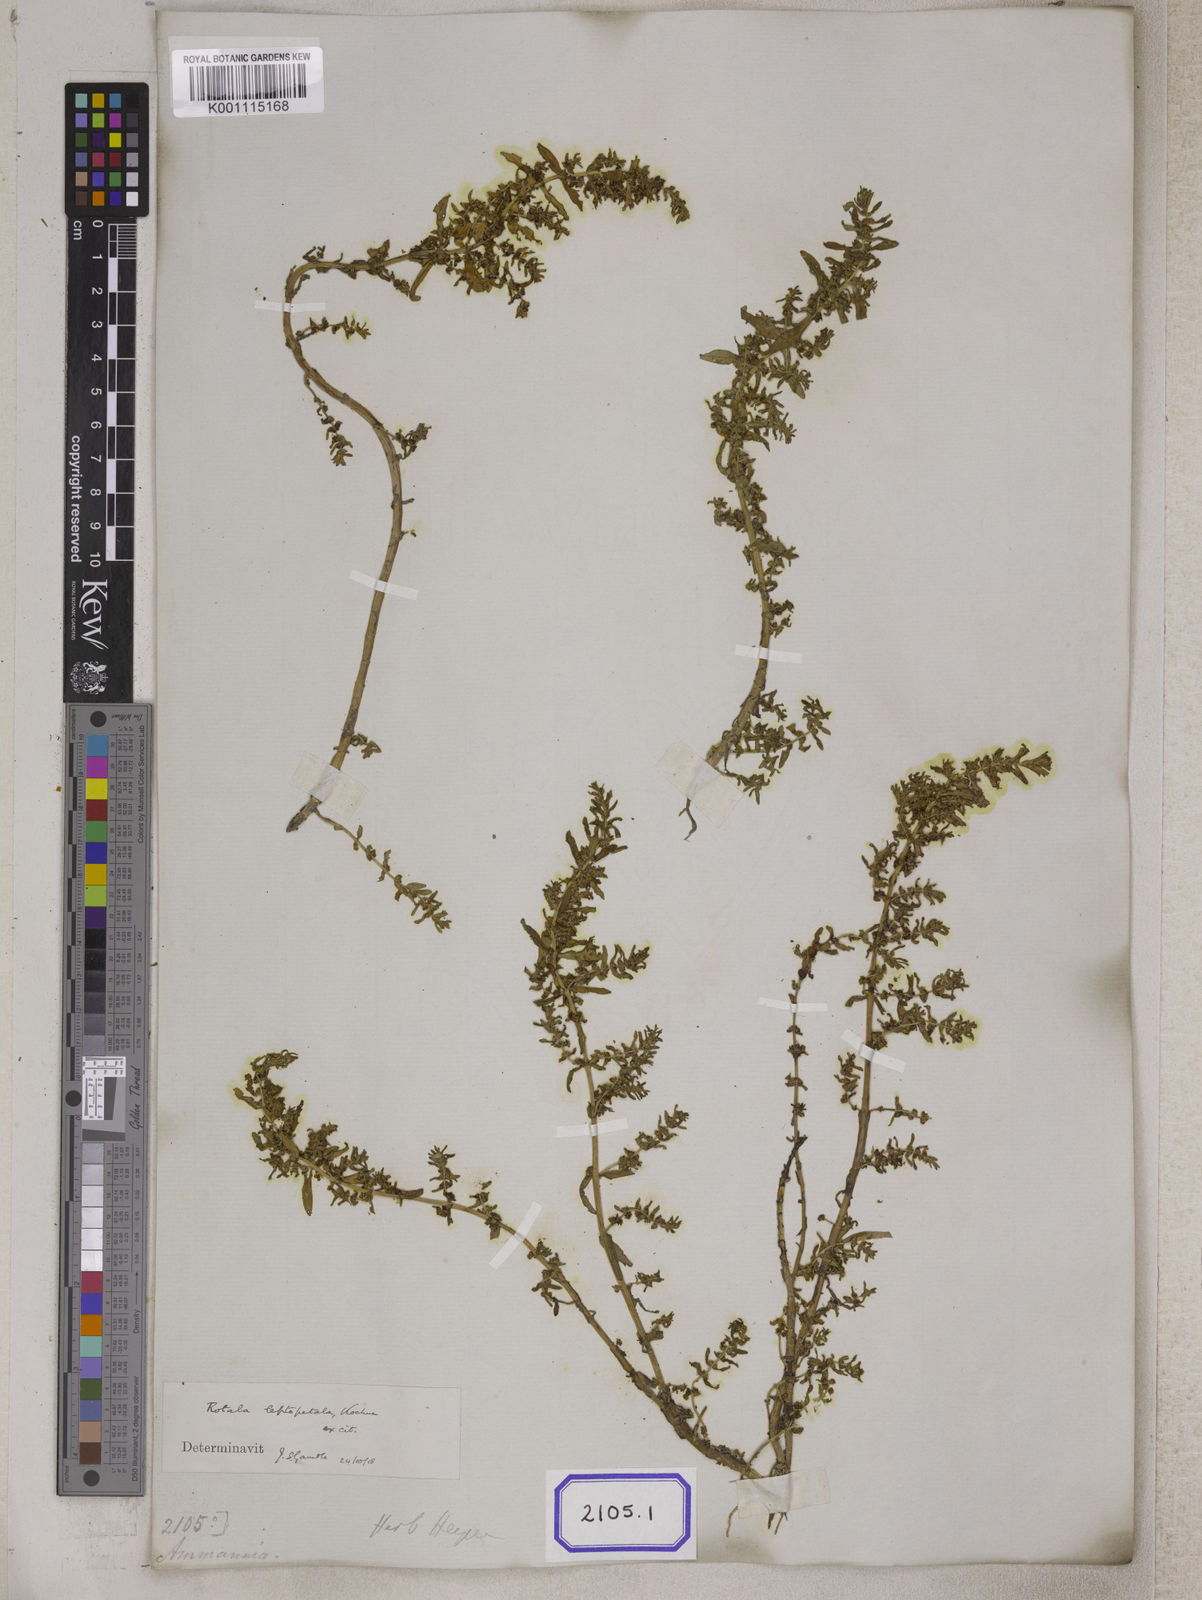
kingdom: Plantae
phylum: Tracheophyta
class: Magnoliopsida
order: Myrtales
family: Lythraceae
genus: Rotala
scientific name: Rotala indica
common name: Indian toothcup
